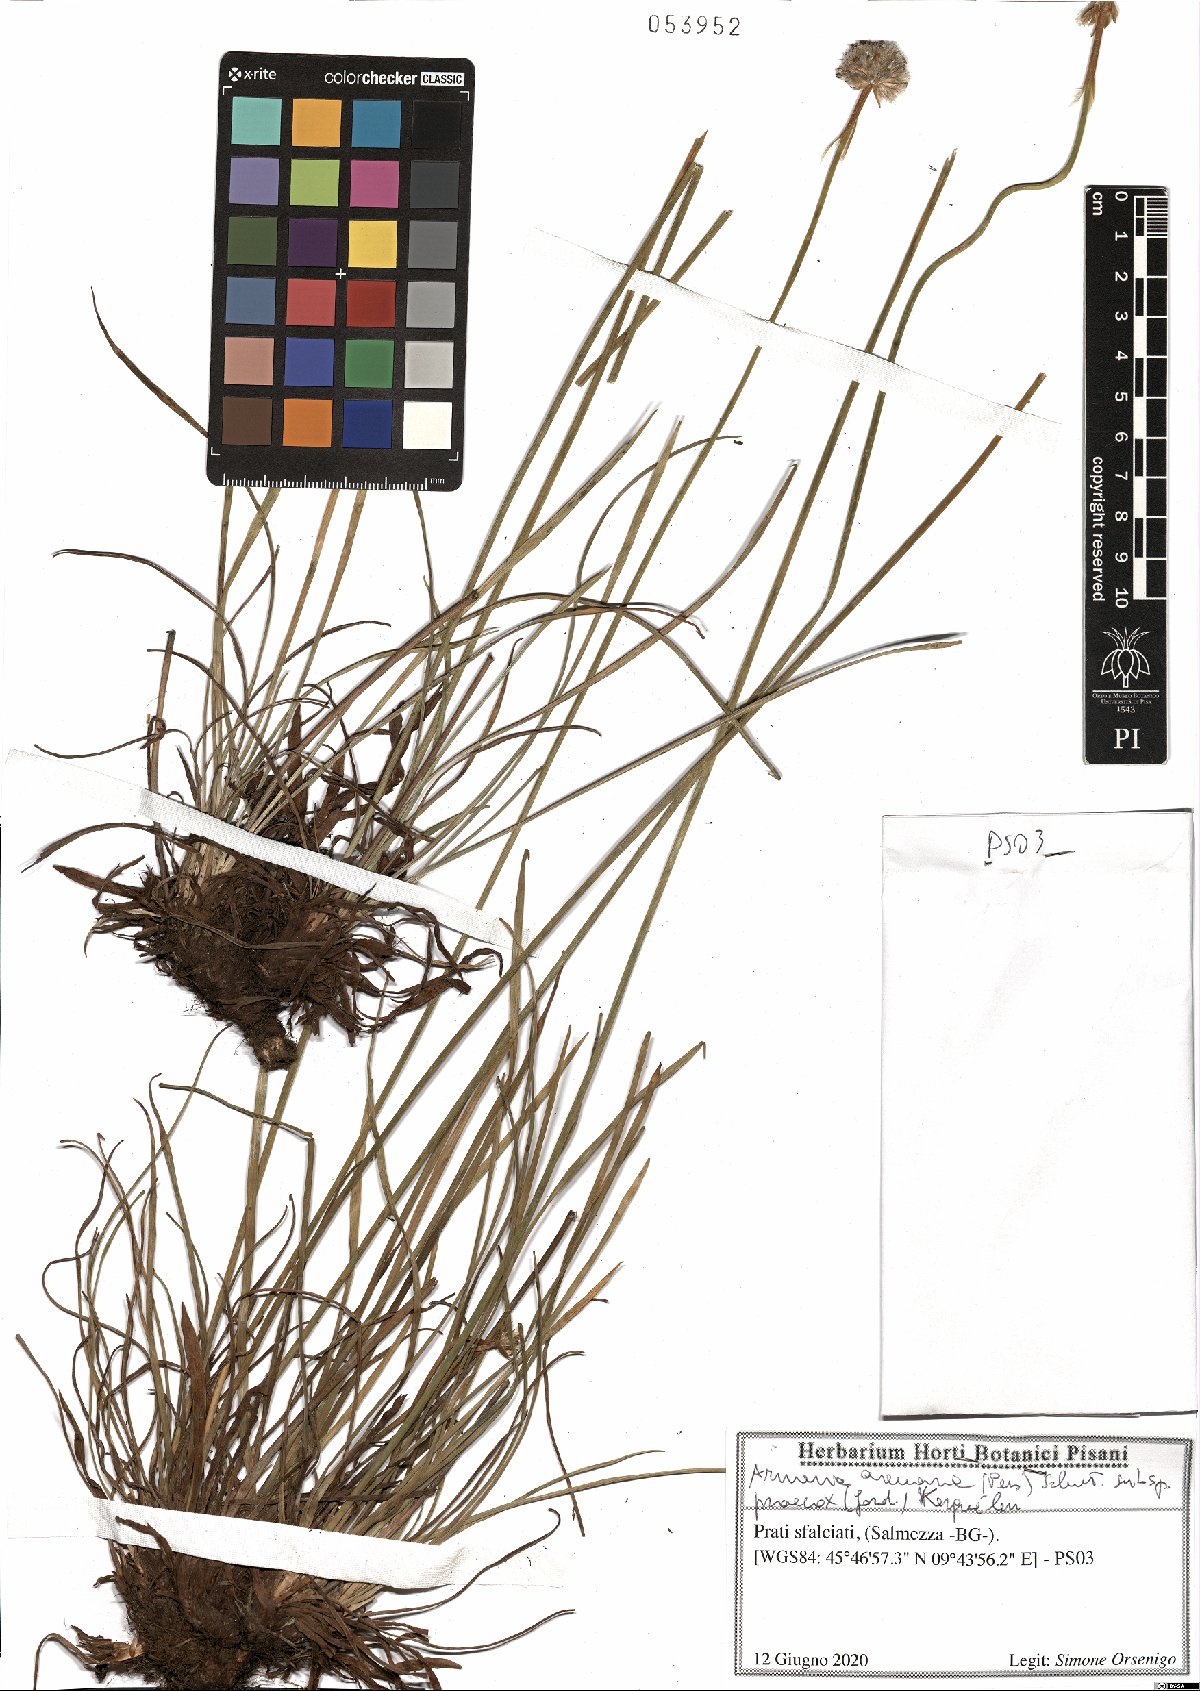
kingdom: Plantae
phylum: Tracheophyta
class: Magnoliopsida
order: Caryophyllales
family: Plumbaginaceae
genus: Armeria
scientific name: Armeria arenaria
